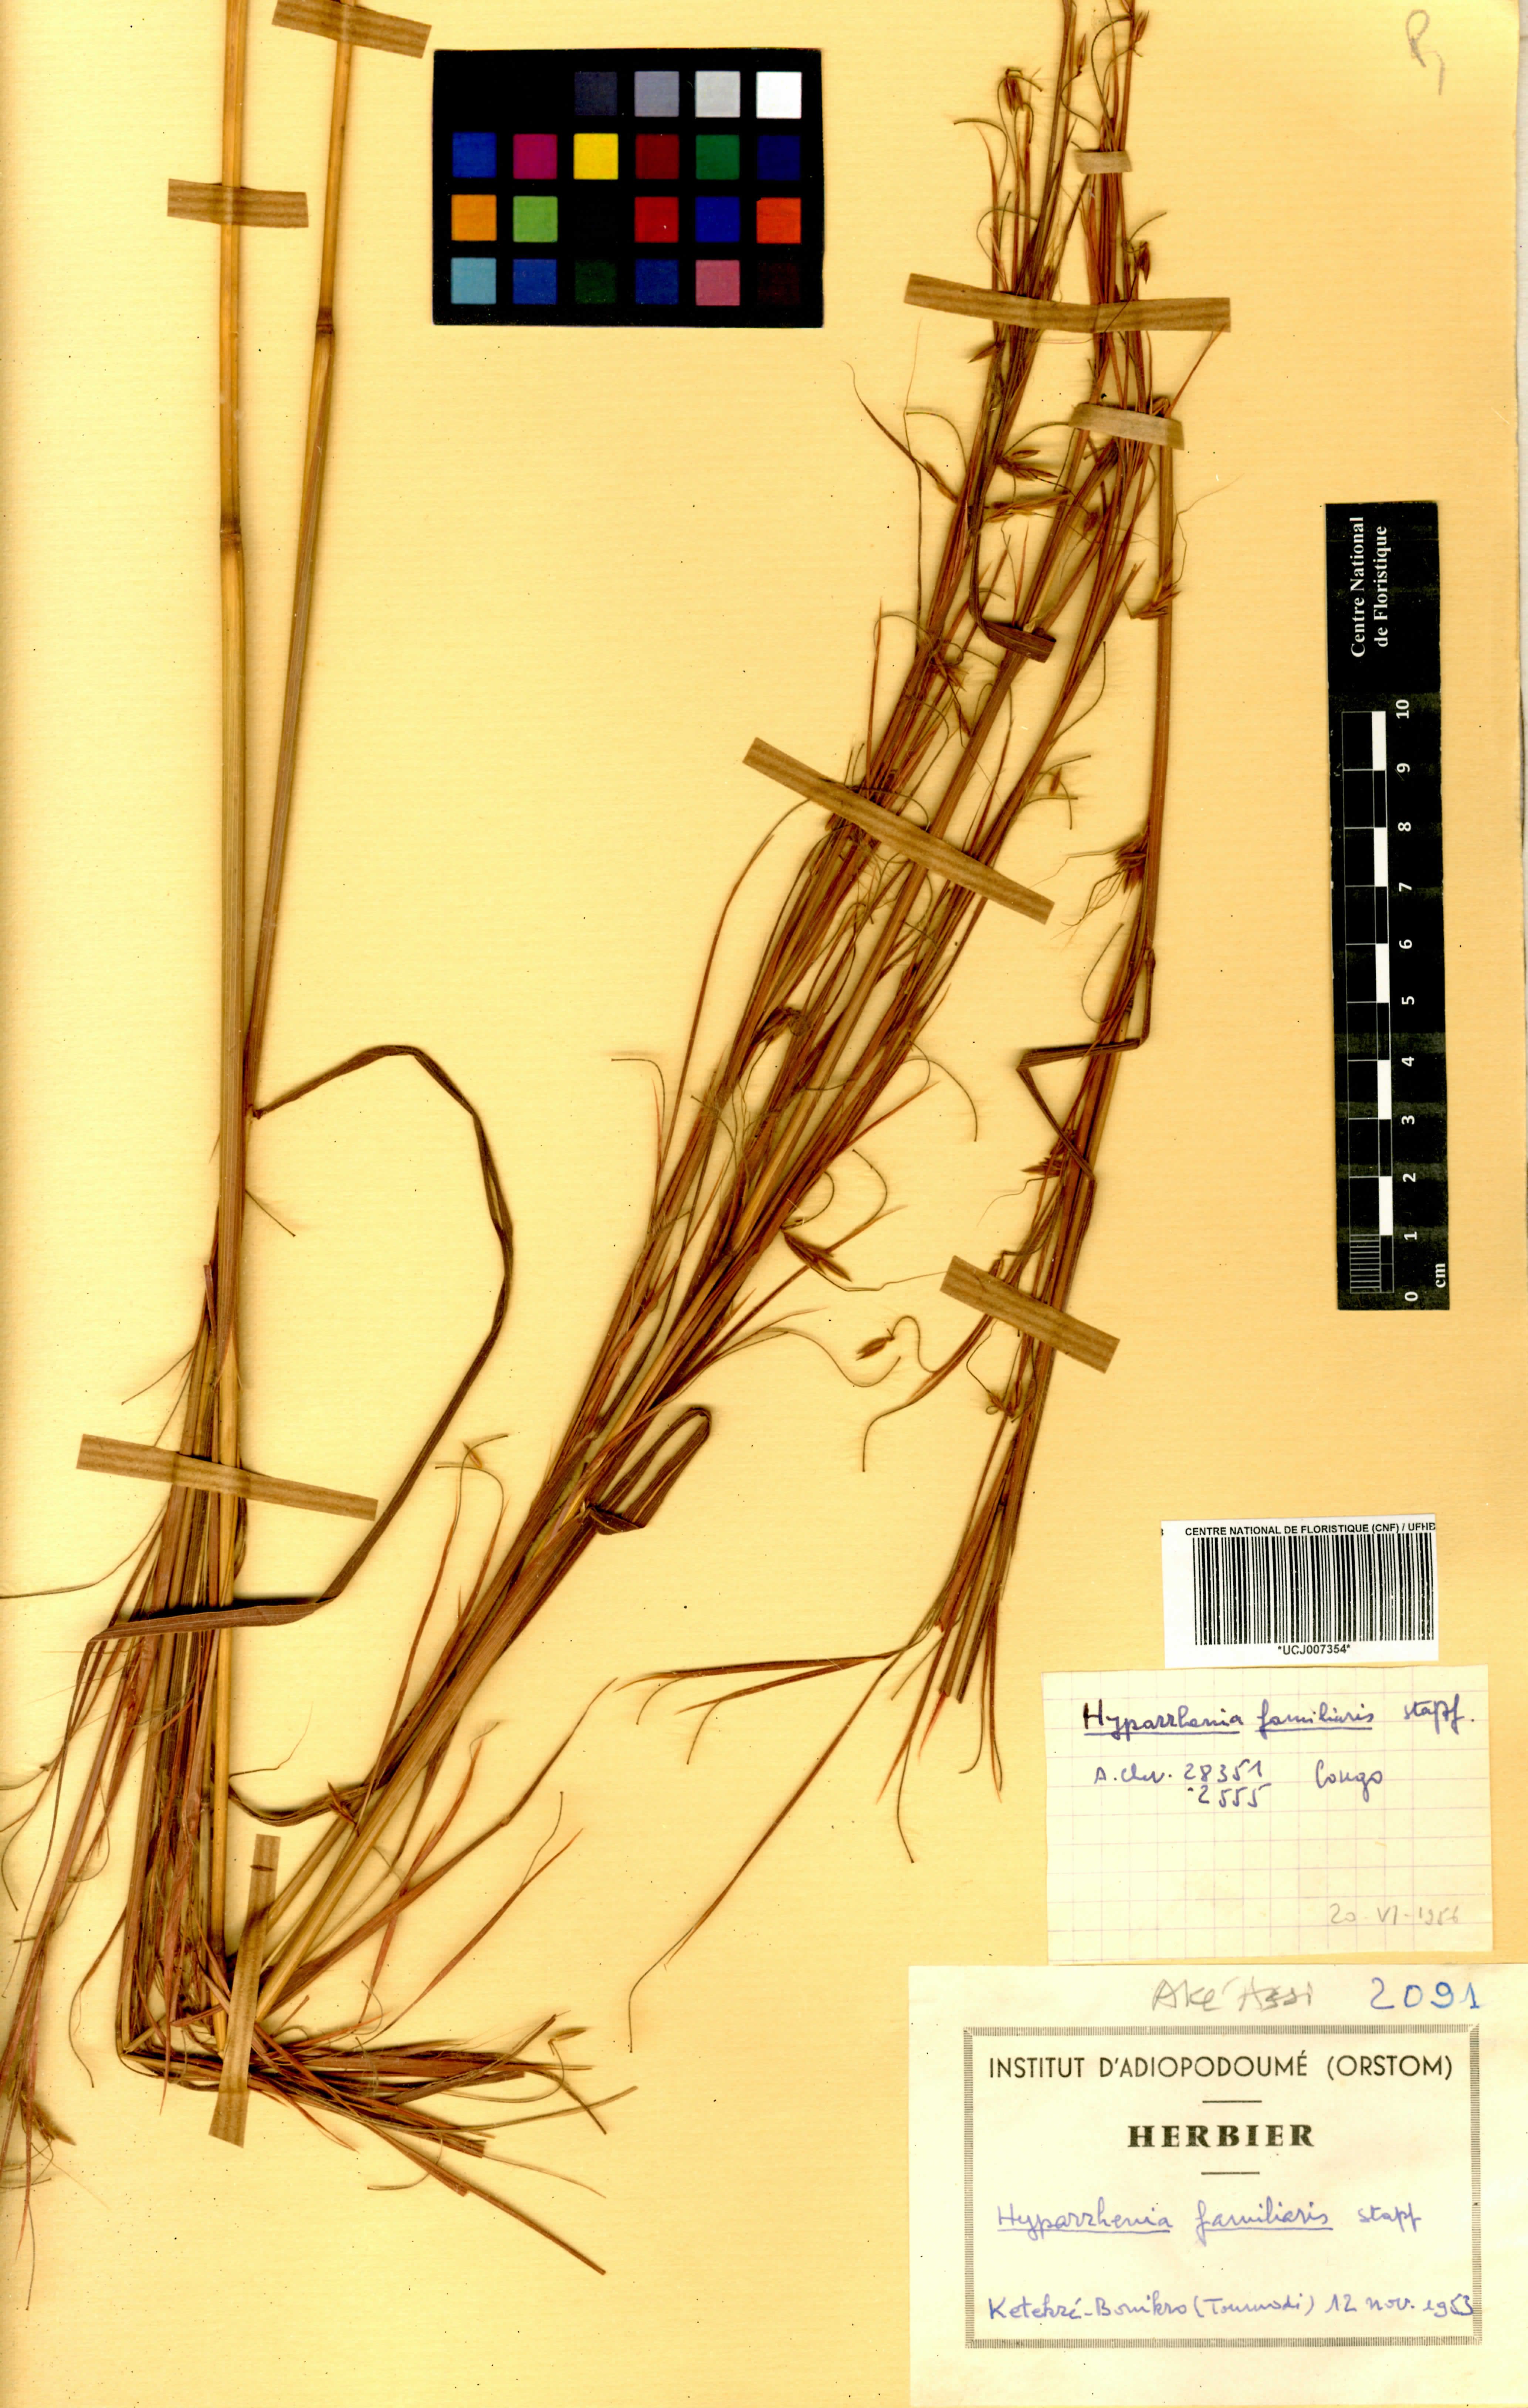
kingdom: Plantae
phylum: Tracheophyta
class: Liliopsida
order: Poales
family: Poaceae
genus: Hyparrhenia
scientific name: Hyparrhenia familiaris
